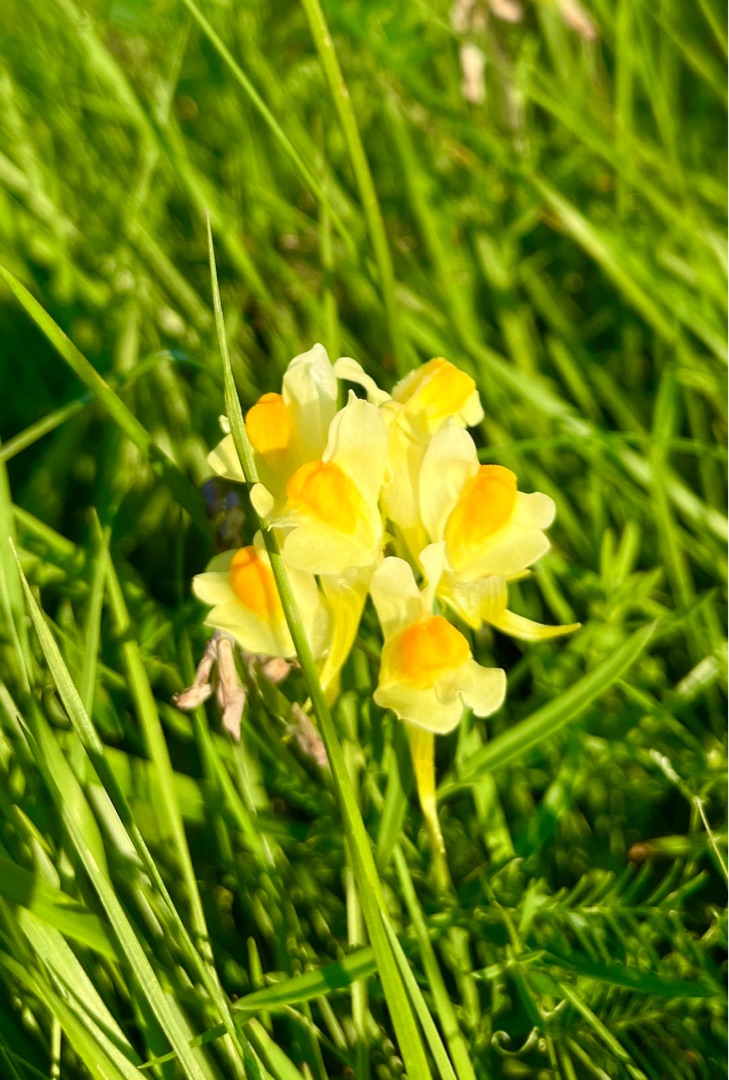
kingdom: Plantae
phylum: Tracheophyta
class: Magnoliopsida
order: Lamiales
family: Plantaginaceae
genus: Linaria
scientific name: Linaria vulgaris
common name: Almindelig torskemund
